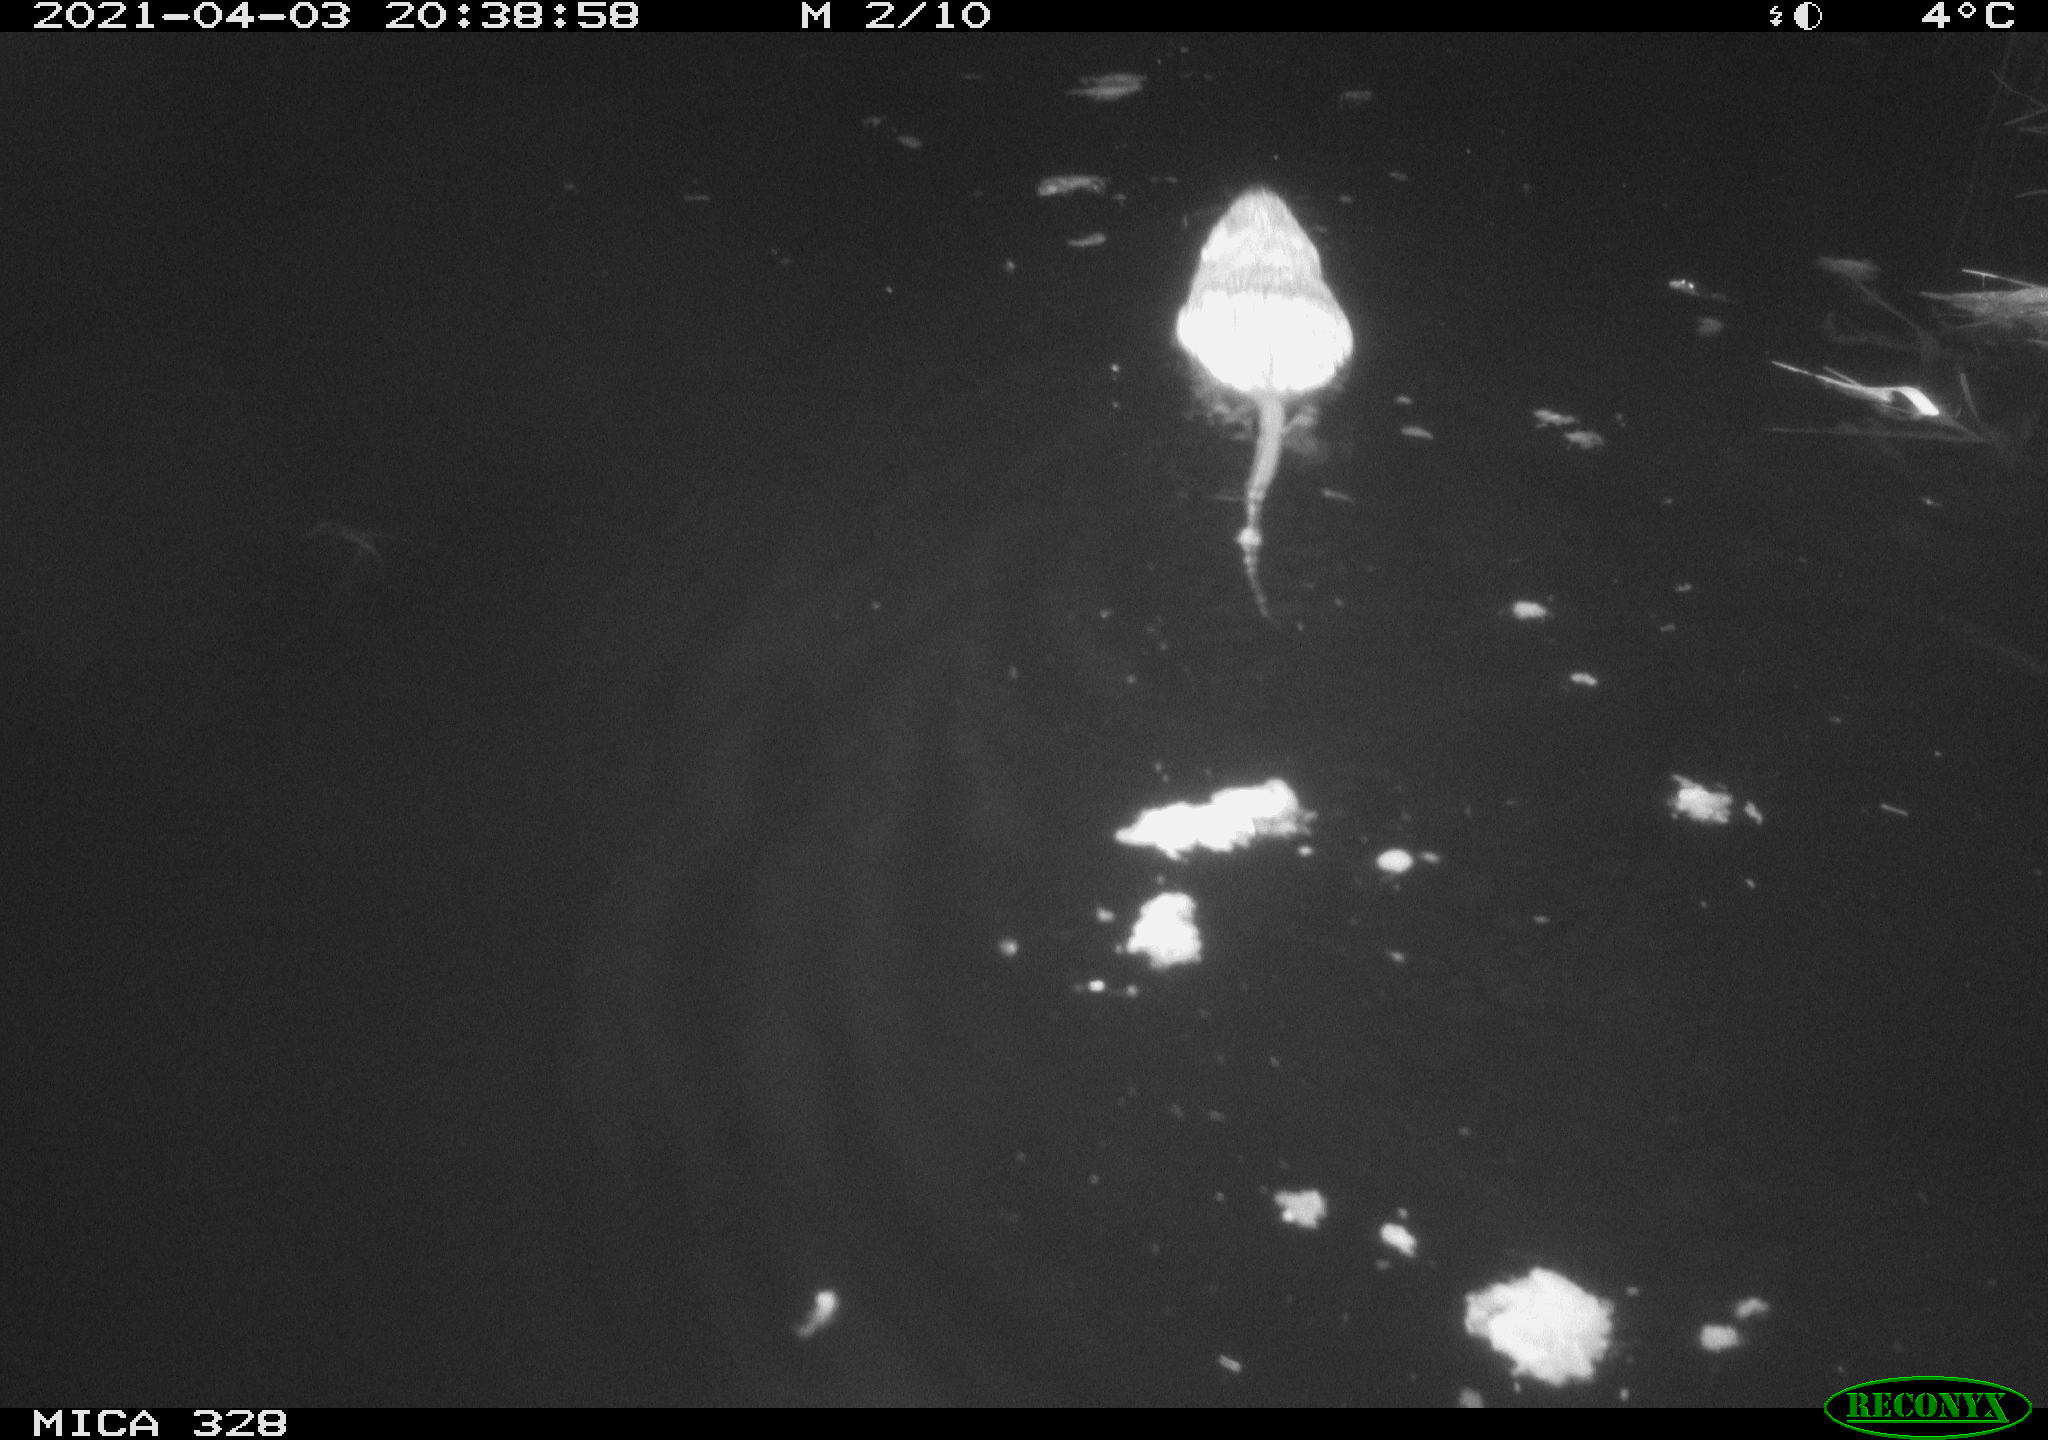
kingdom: Animalia
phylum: Chordata
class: Mammalia
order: Rodentia
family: Cricetidae
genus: Ondatra
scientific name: Ondatra zibethicus
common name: Muskrat
